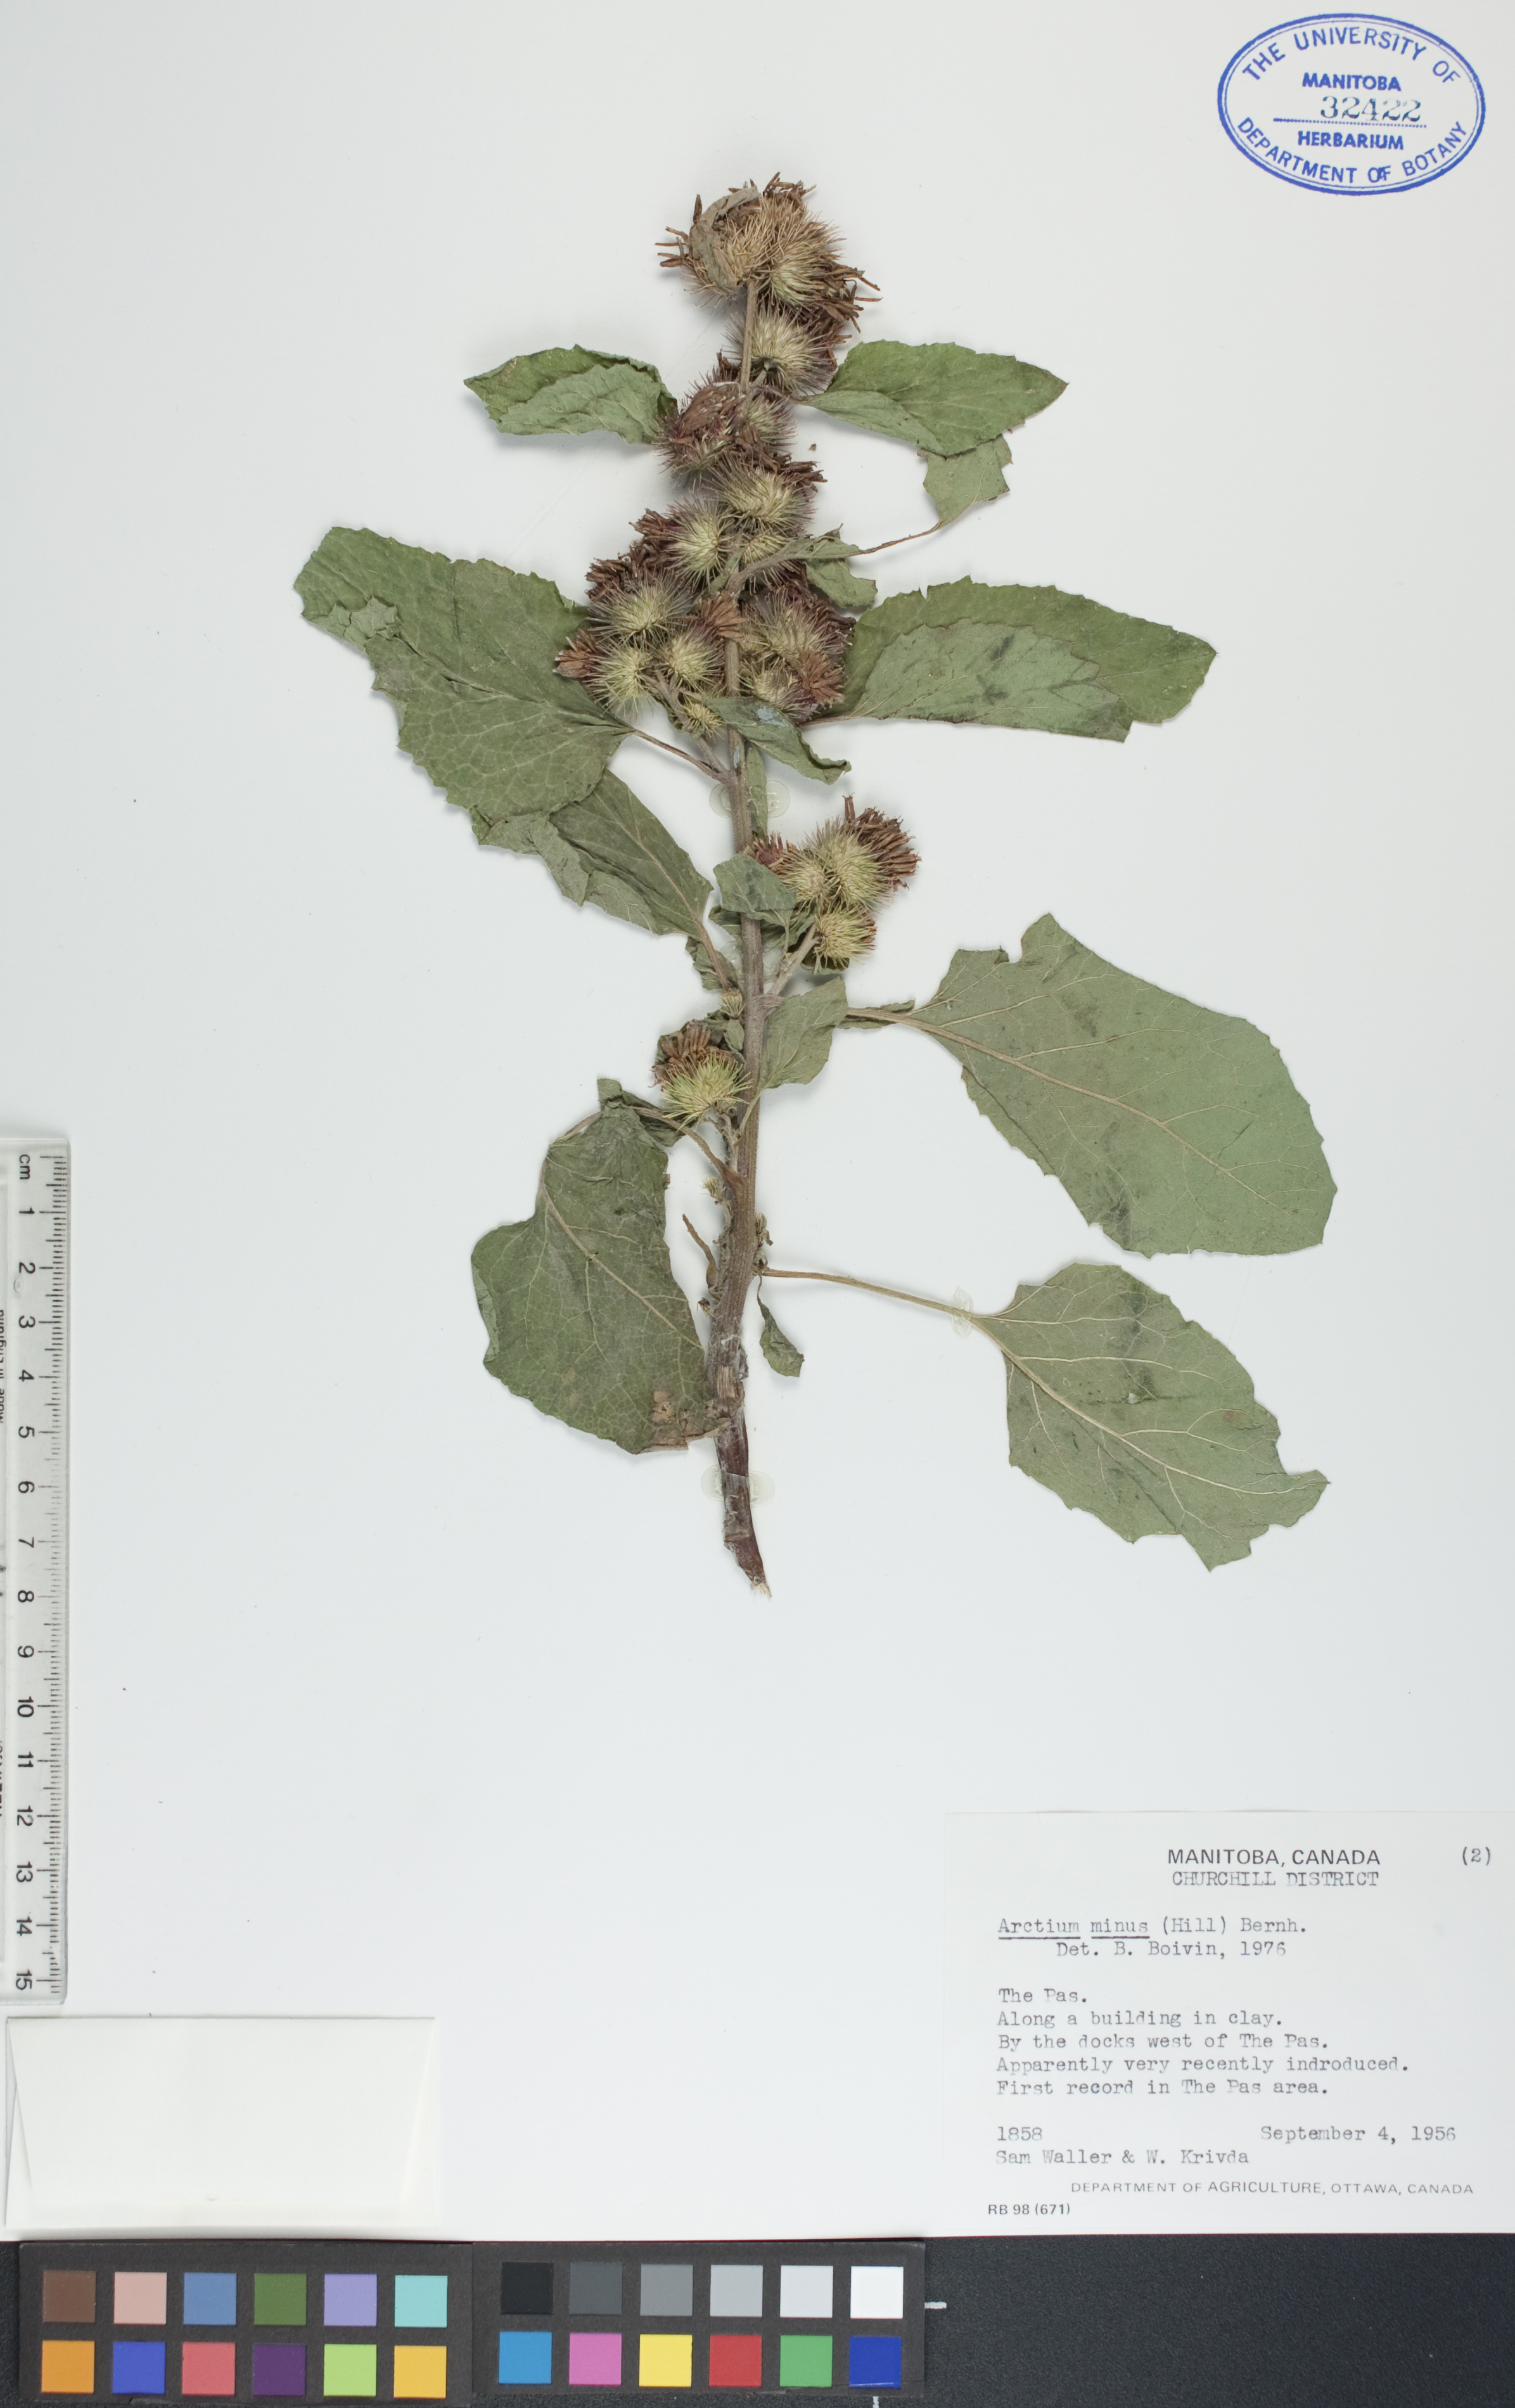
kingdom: Plantae
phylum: Tracheophyta
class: Magnoliopsida
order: Asterales
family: Asteraceae
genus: Arctium
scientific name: Arctium minus
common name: Lesser burdock
